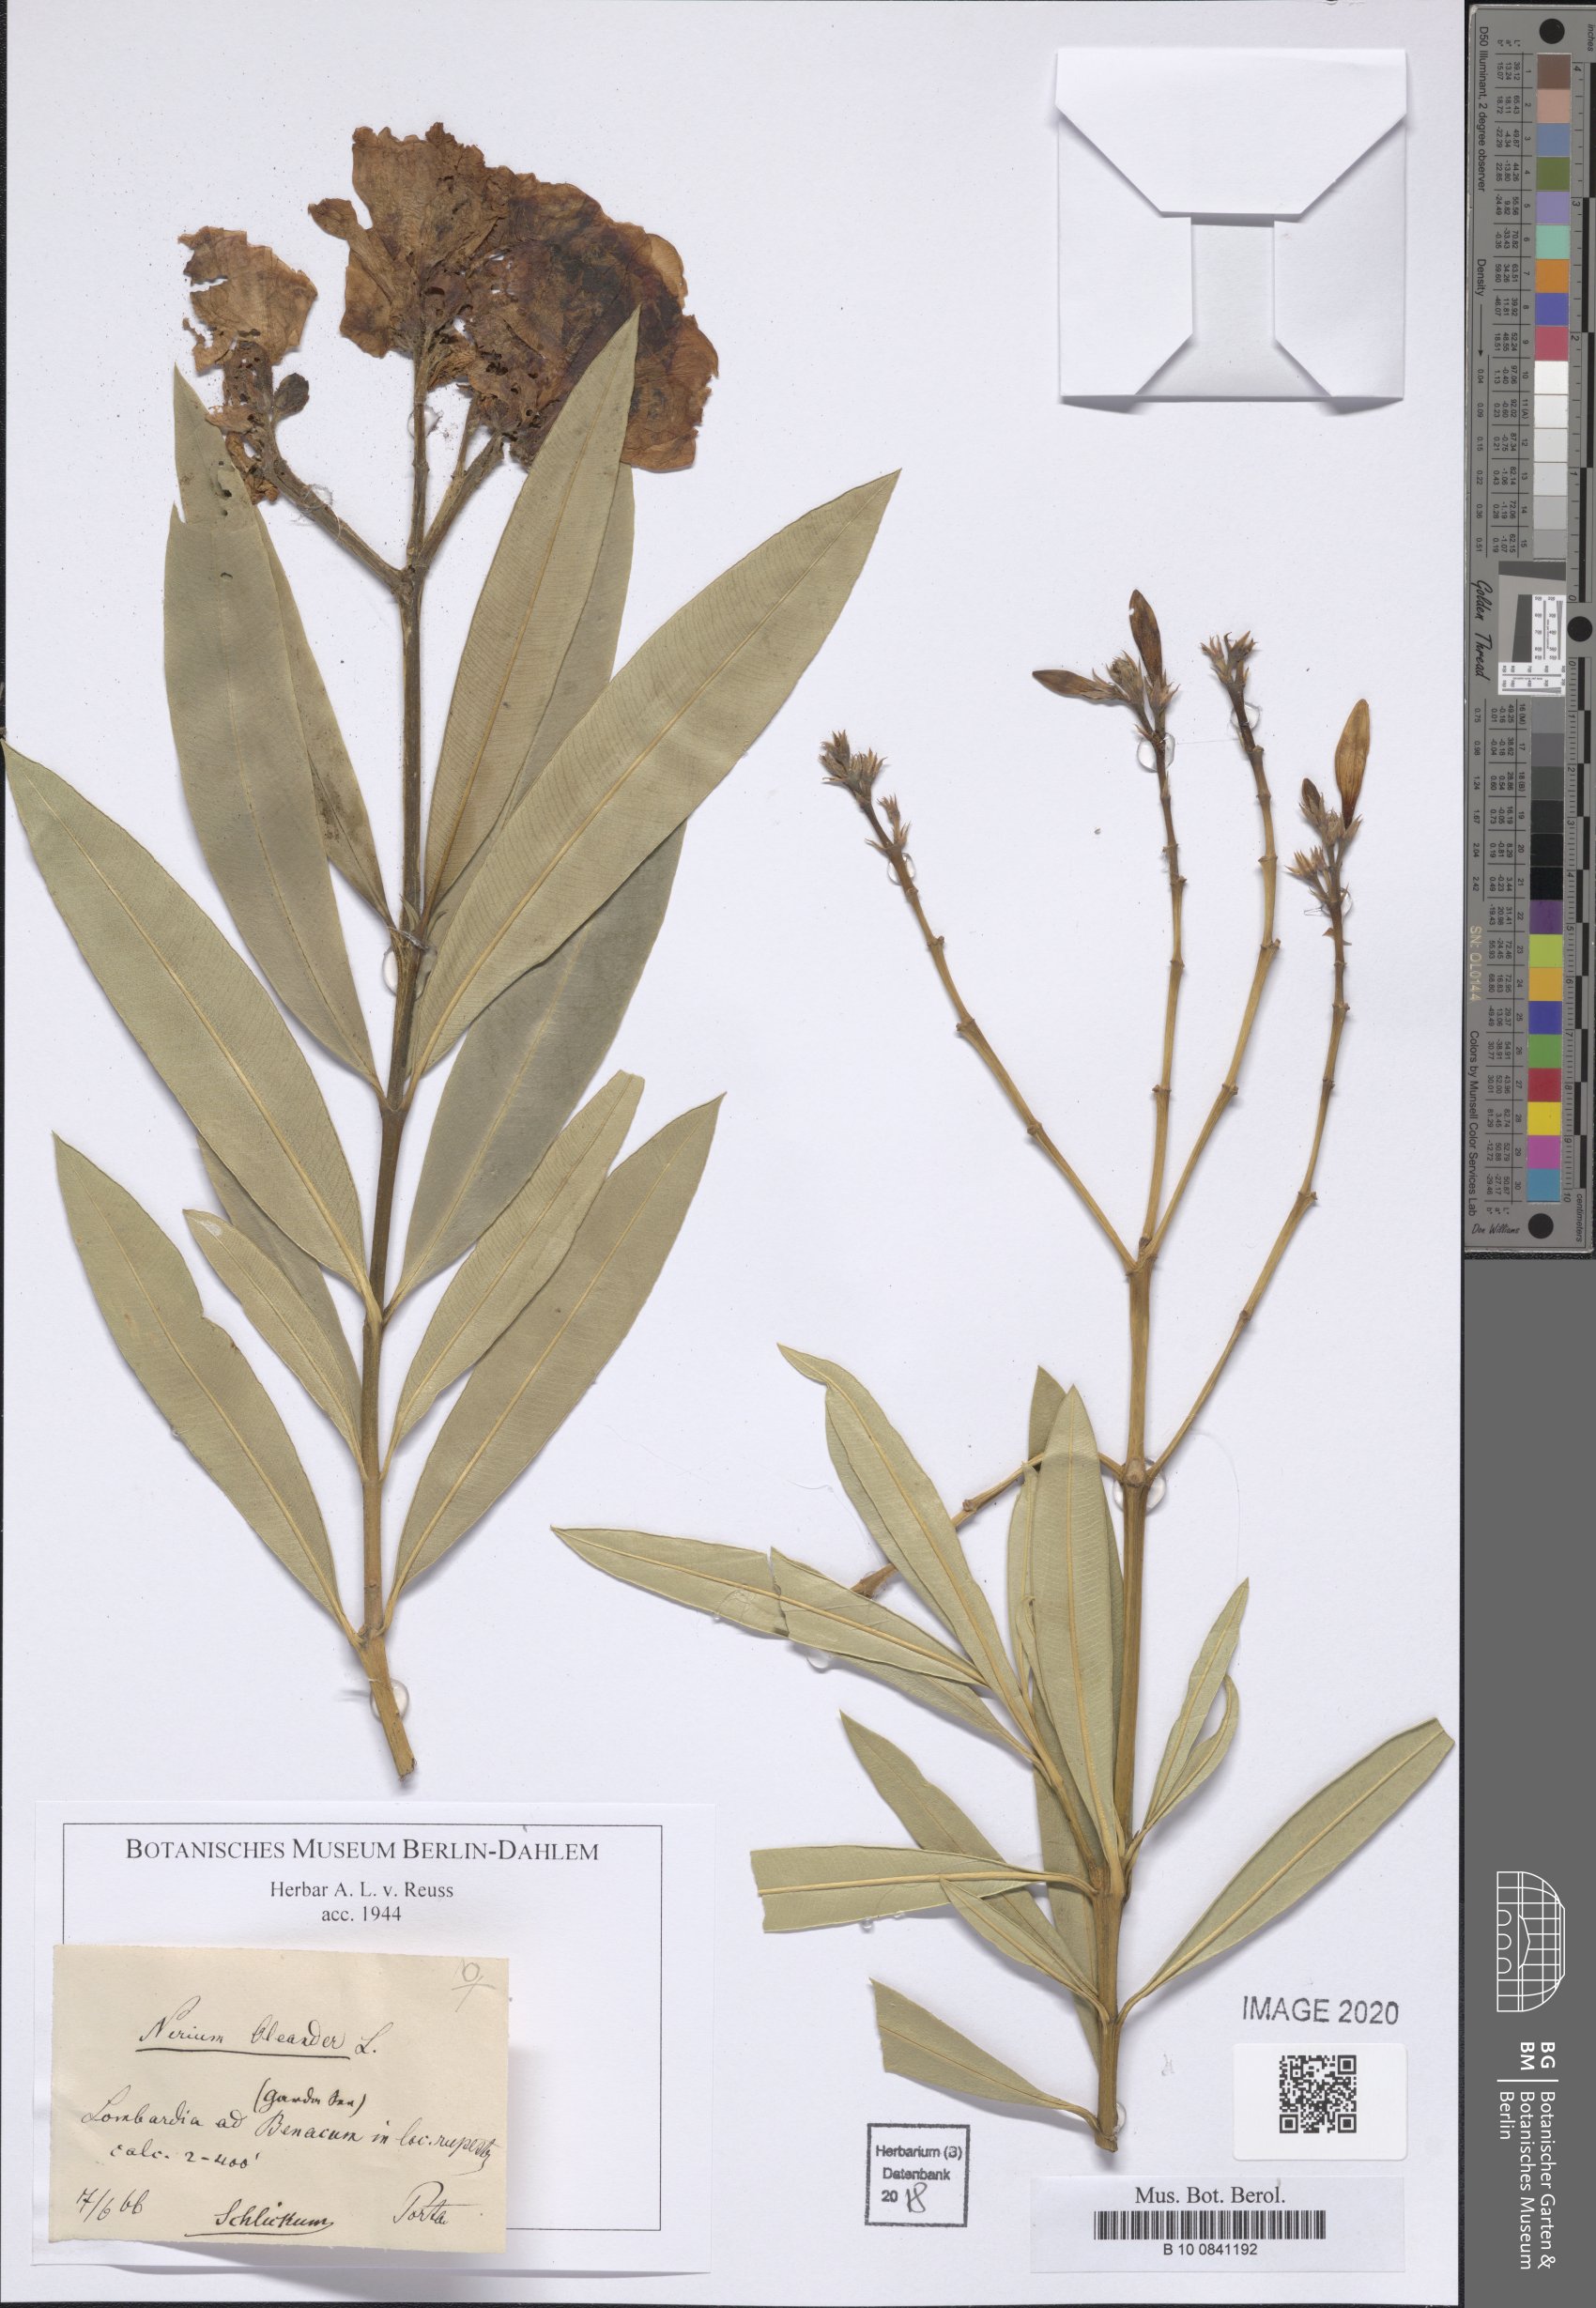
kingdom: Plantae
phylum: Tracheophyta
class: Magnoliopsida
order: Gentianales
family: Apocynaceae
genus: Nerium
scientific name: Nerium oleander
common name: Oleander
